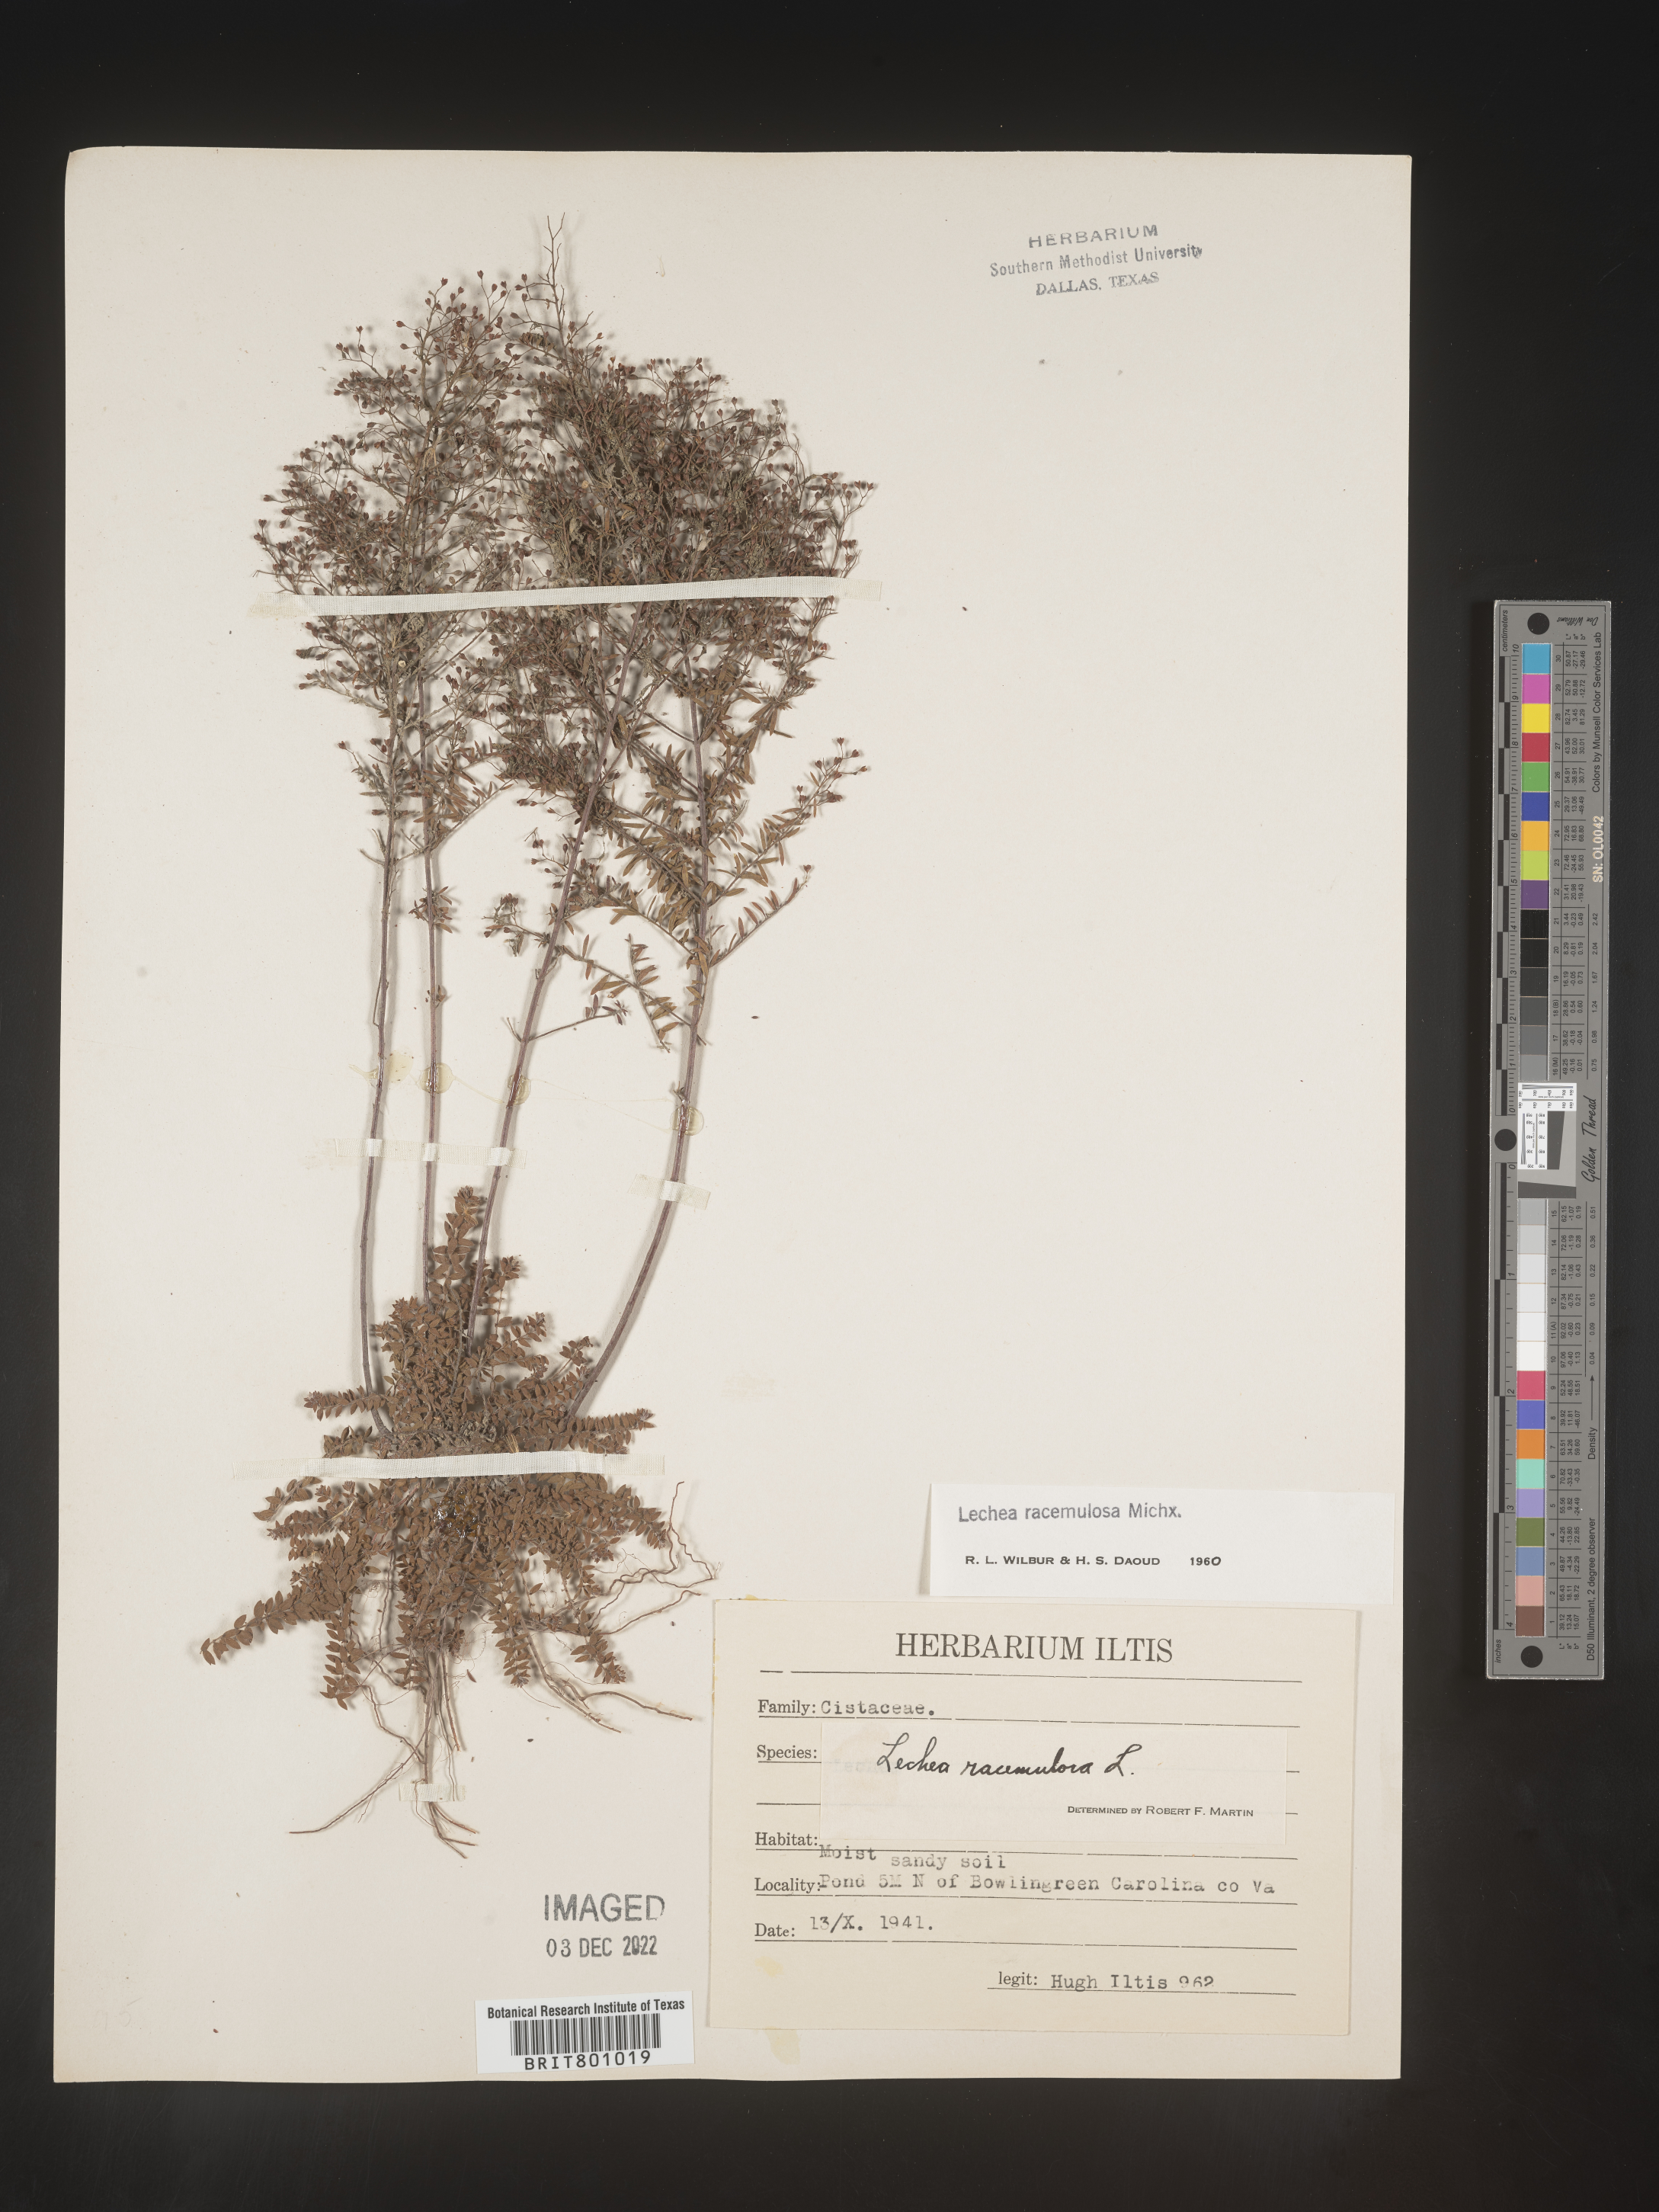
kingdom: Plantae
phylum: Tracheophyta
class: Magnoliopsida
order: Malvales
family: Cistaceae
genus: Lechea
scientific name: Lechea racemulosa
